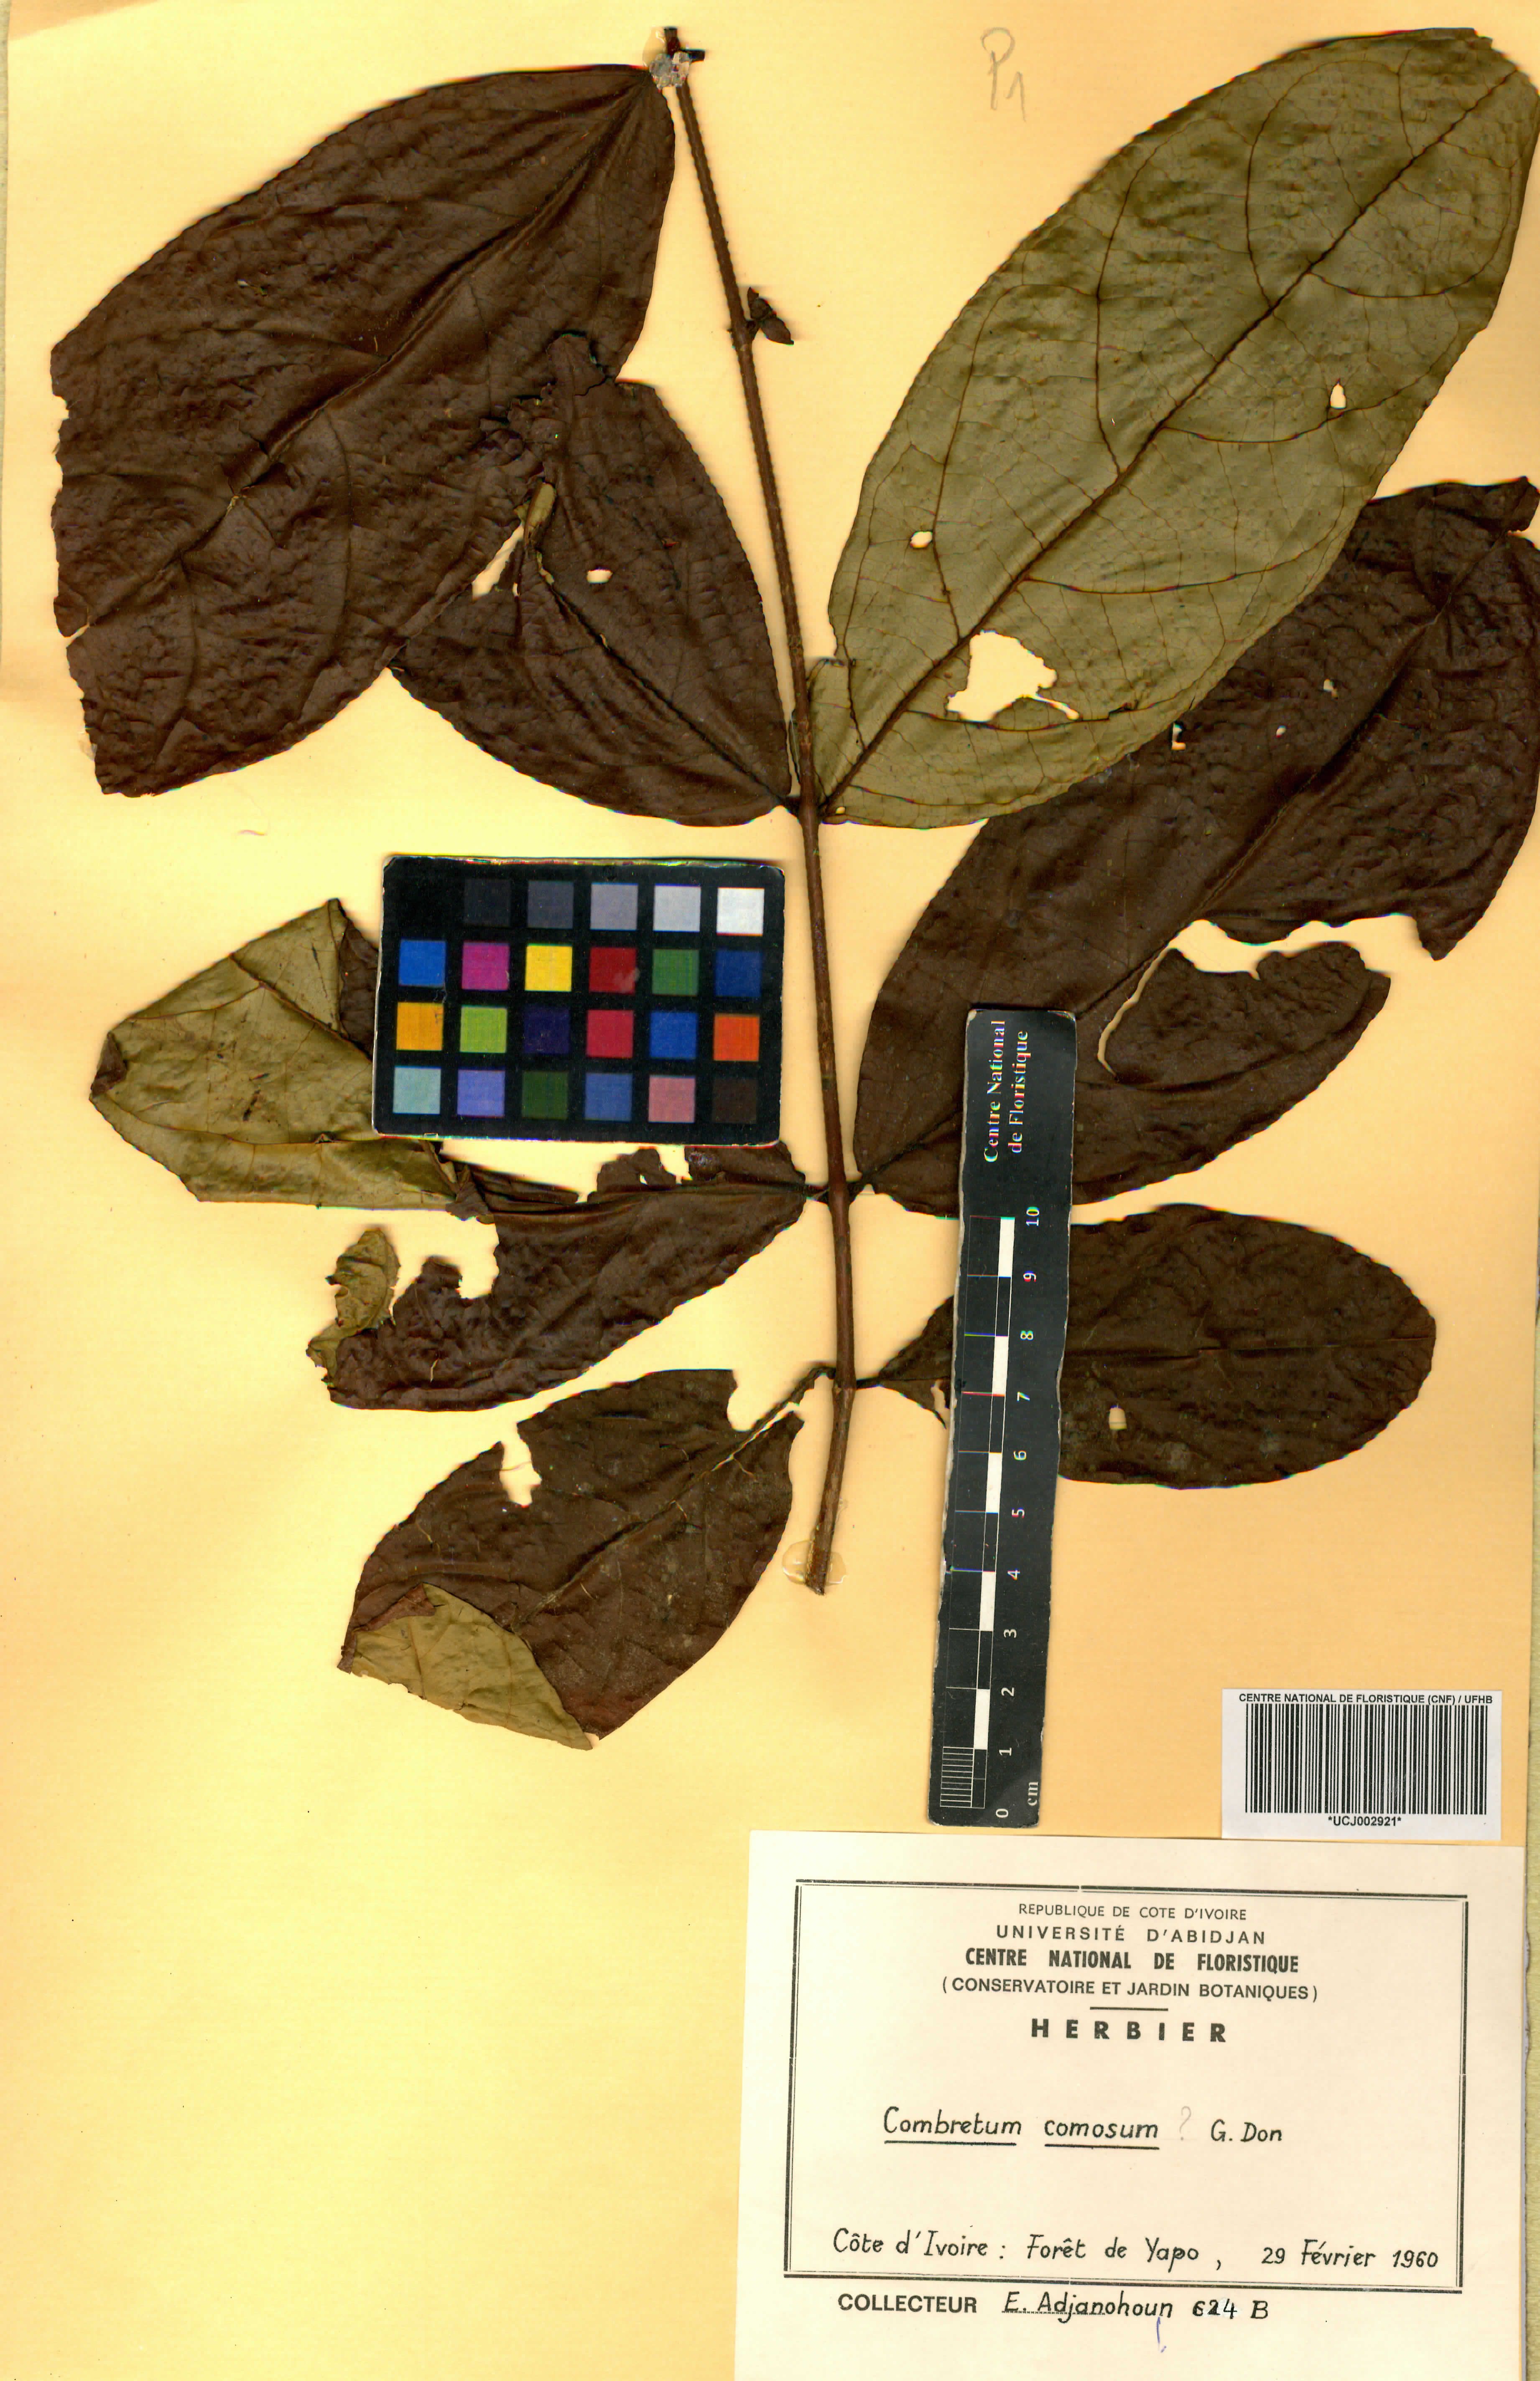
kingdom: Plantae
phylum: Tracheophyta
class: Magnoliopsida
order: Myrtales
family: Combretaceae
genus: Combretum
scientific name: Combretum comosum
